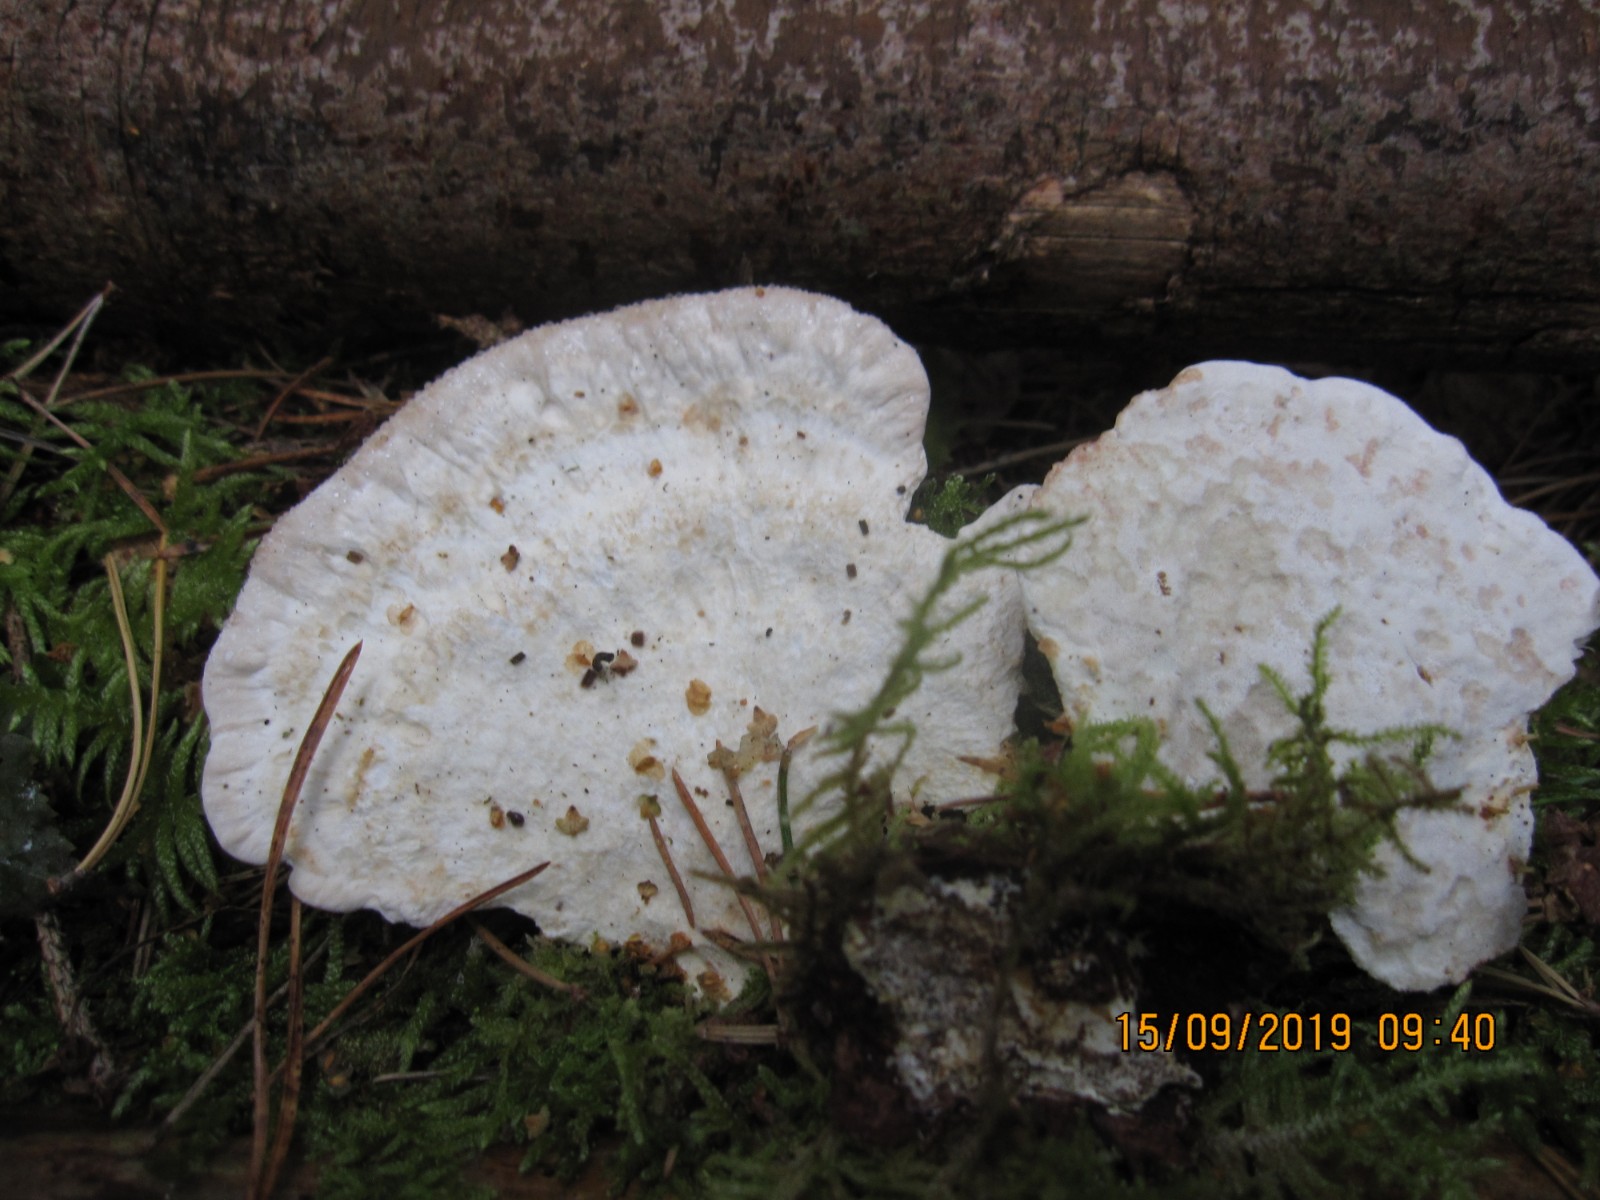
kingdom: Fungi
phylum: Basidiomycota
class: Agaricomycetes
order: Polyporales
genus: Calcipostia
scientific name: Calcipostia guttulata
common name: dråbe-kødporesvamp
